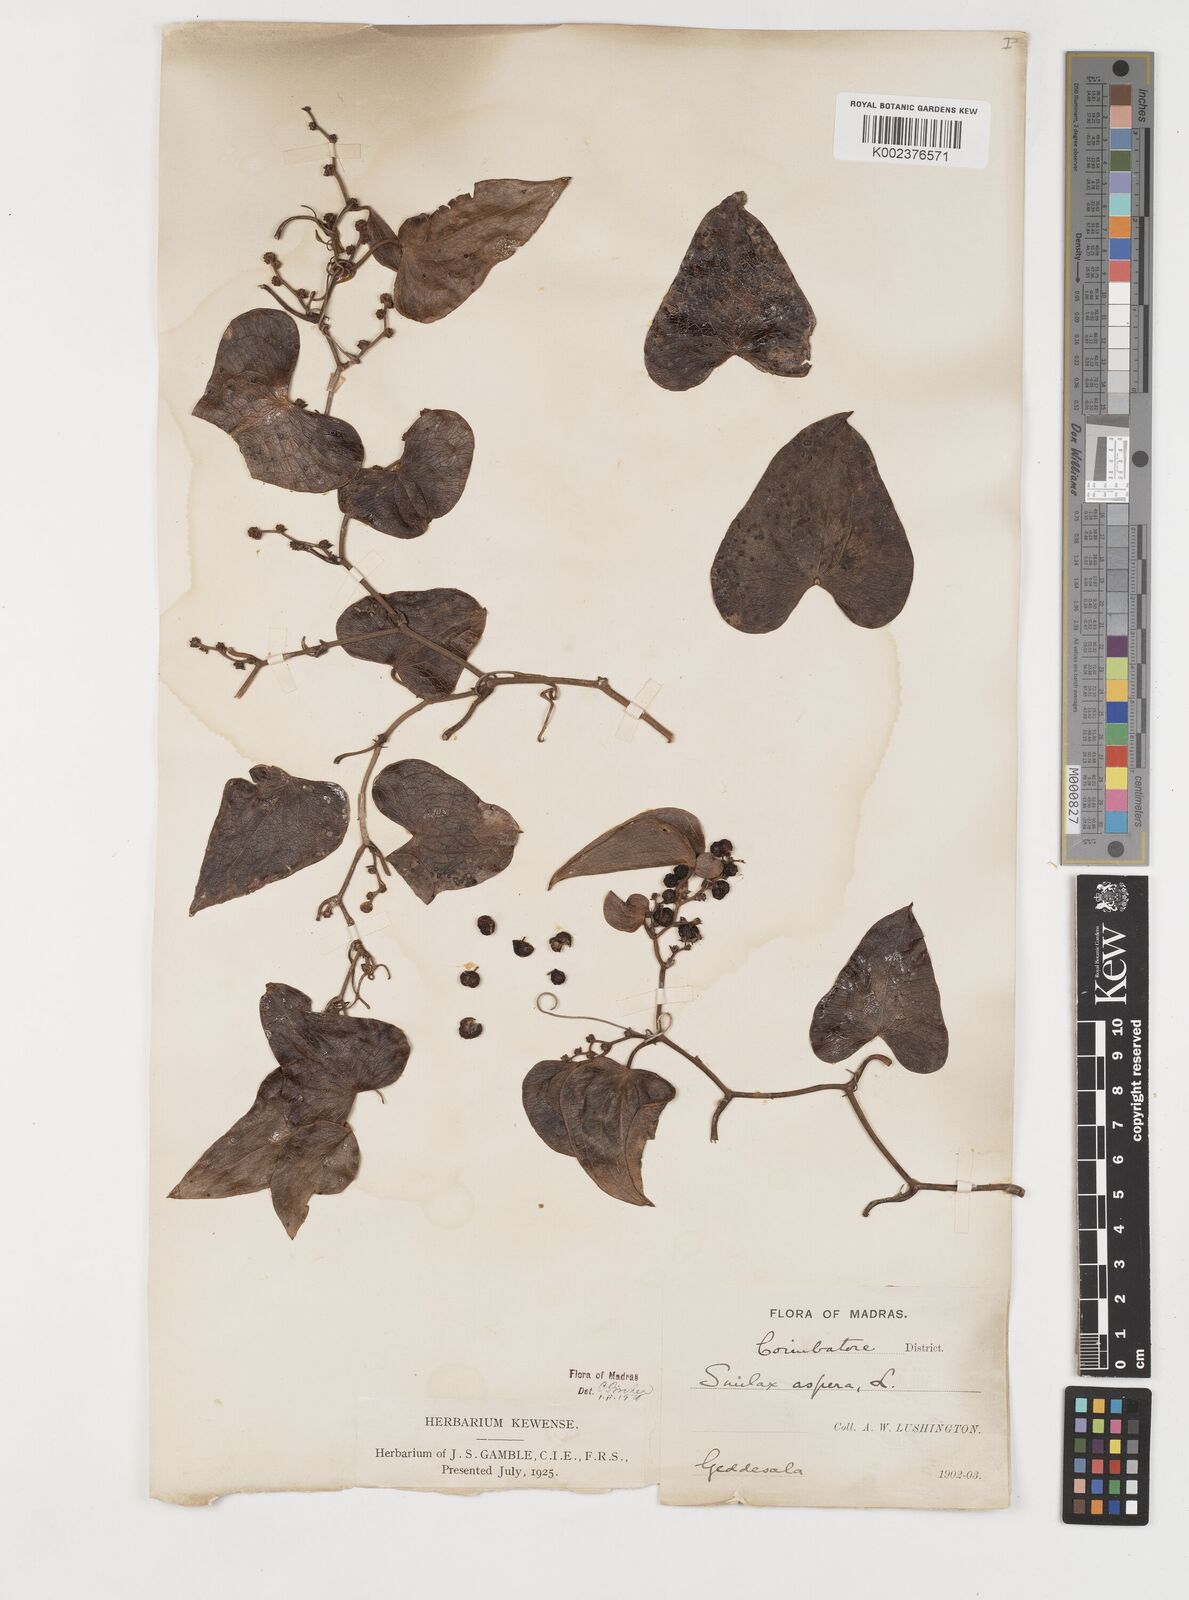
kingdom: Plantae
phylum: Tracheophyta
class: Liliopsida
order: Liliales
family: Smilacaceae
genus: Smilax
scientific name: Smilax aspera
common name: Common smilax
